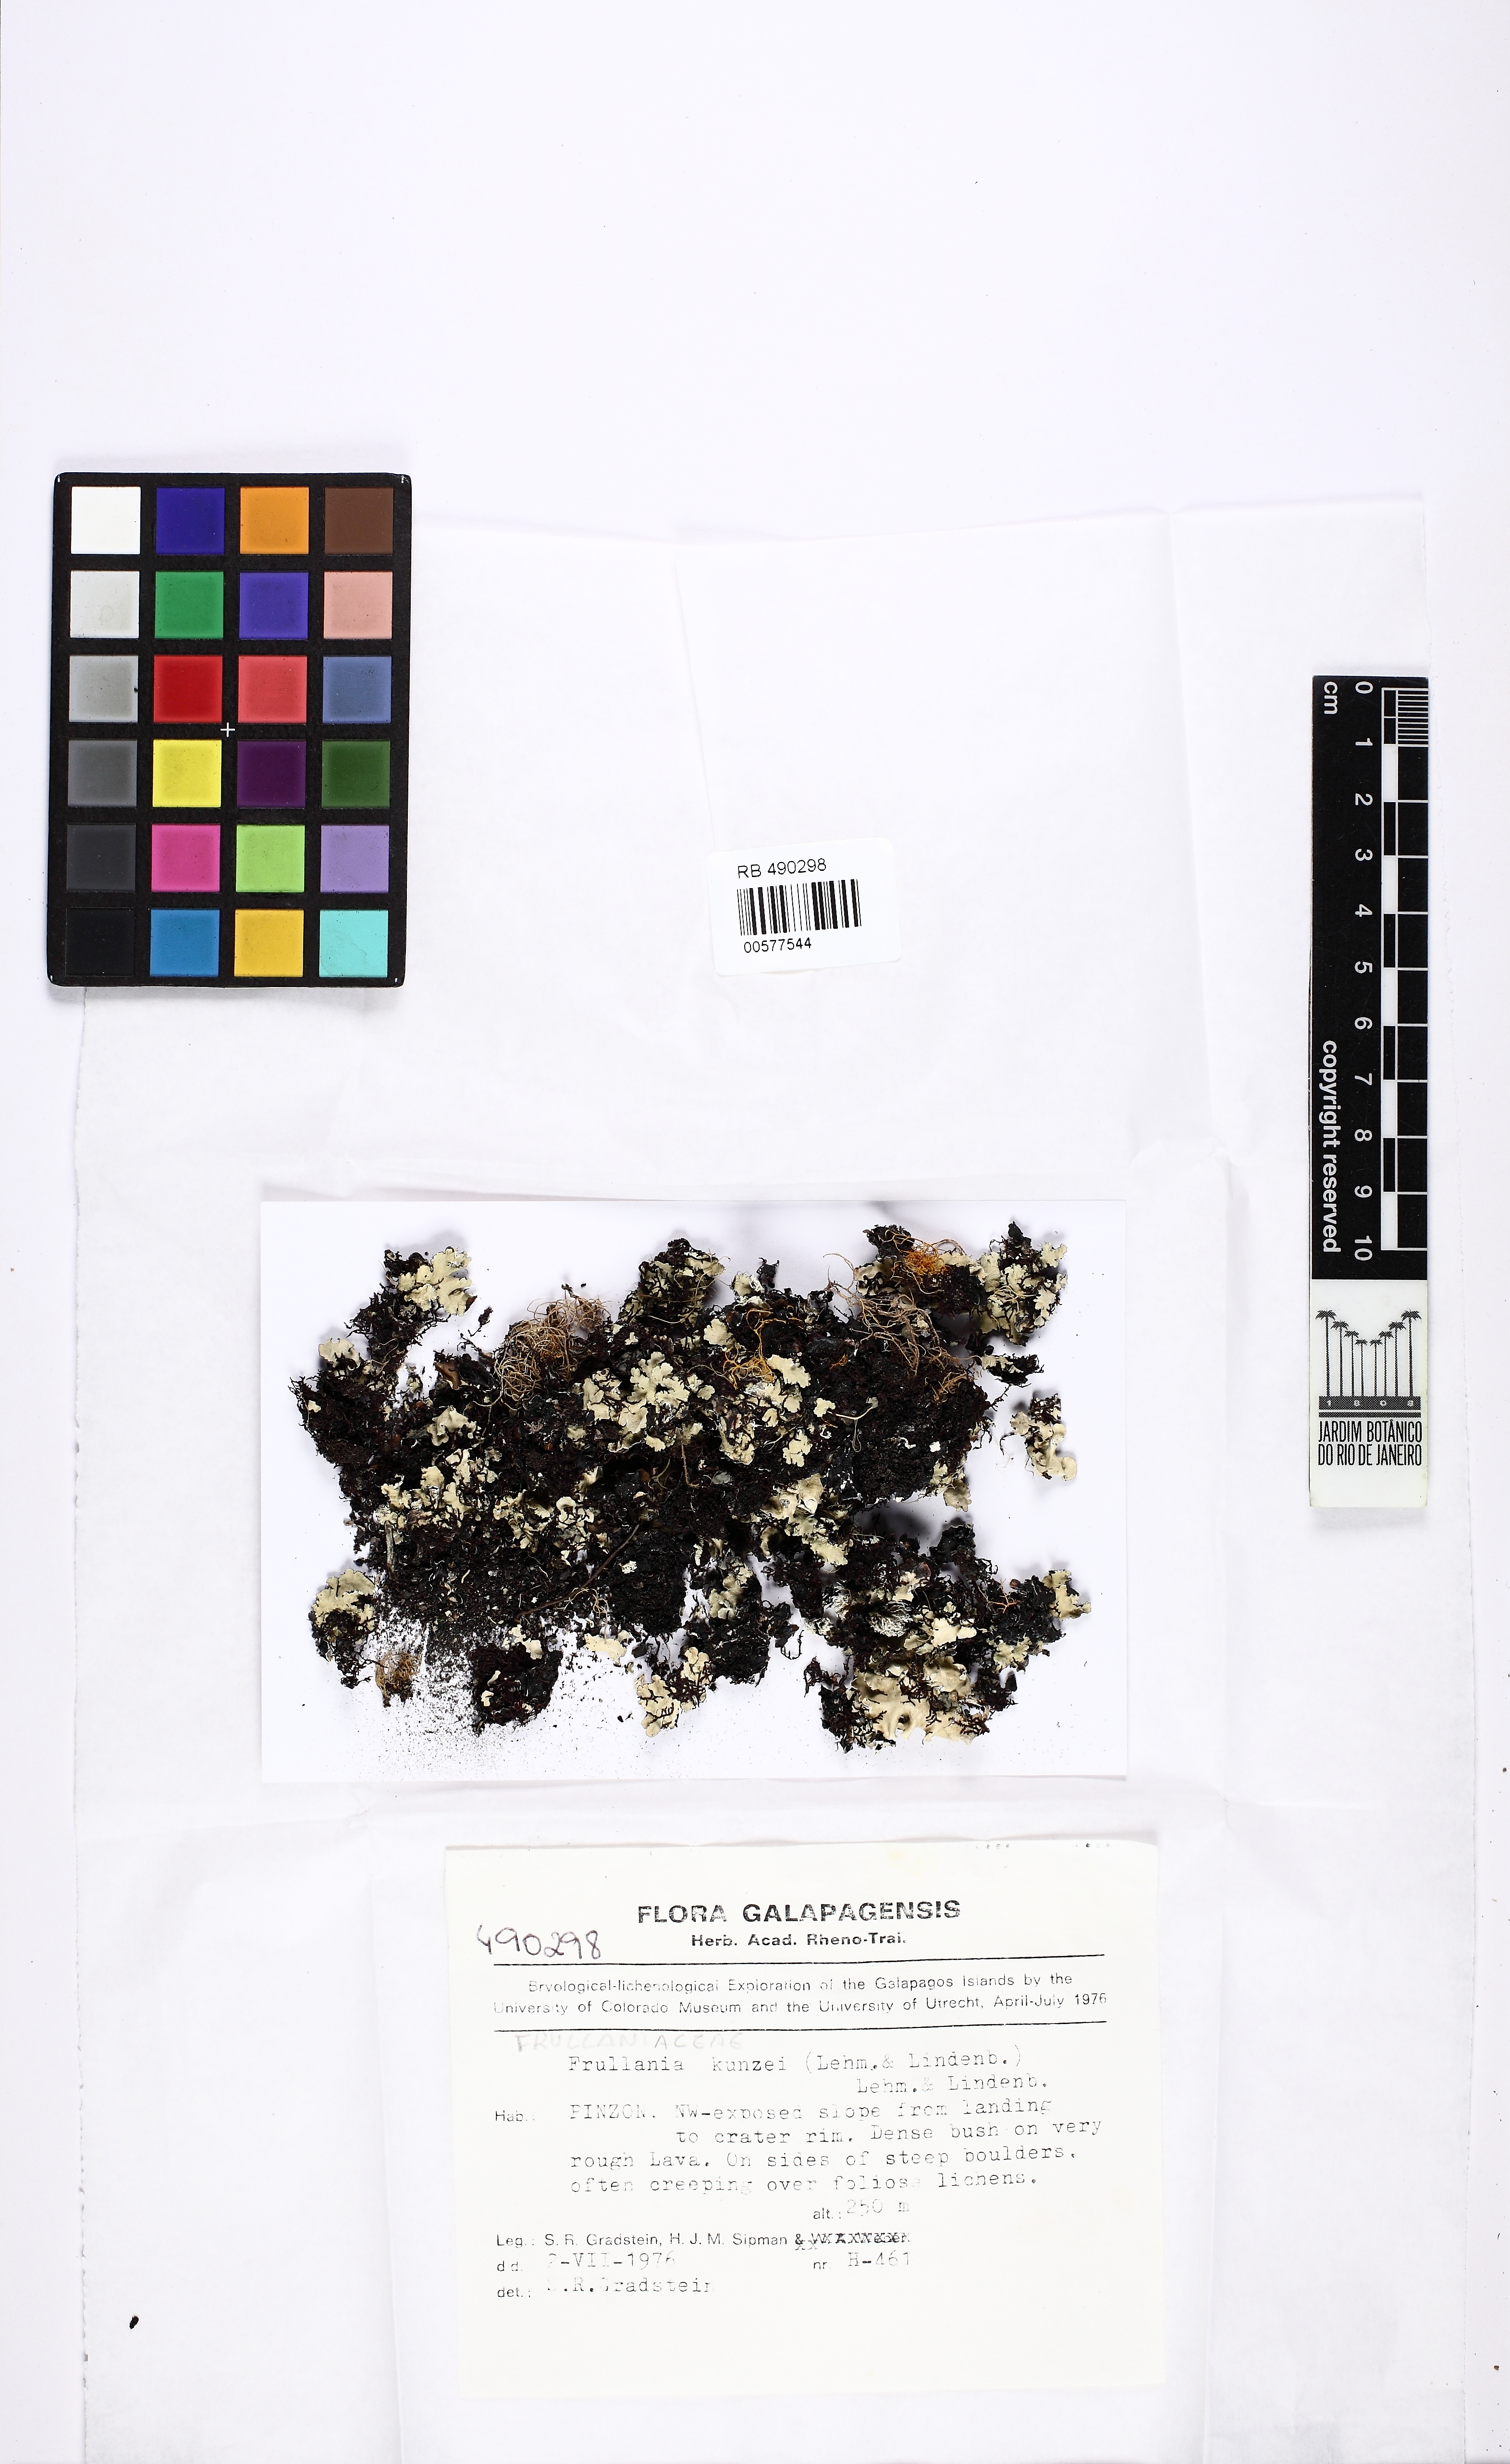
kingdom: Plantae
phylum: Marchantiophyta
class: Jungermanniopsida
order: Porellales
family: Frullaniaceae
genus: Frullania
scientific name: Frullania kunzei
